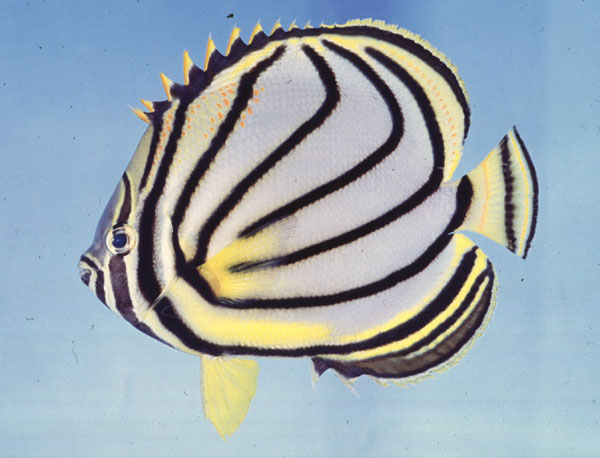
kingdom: Animalia
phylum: Chordata
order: Perciformes
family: Chaetodontidae
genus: Chaetodon
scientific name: Chaetodon meyeri
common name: Meyer's butterflyfish
